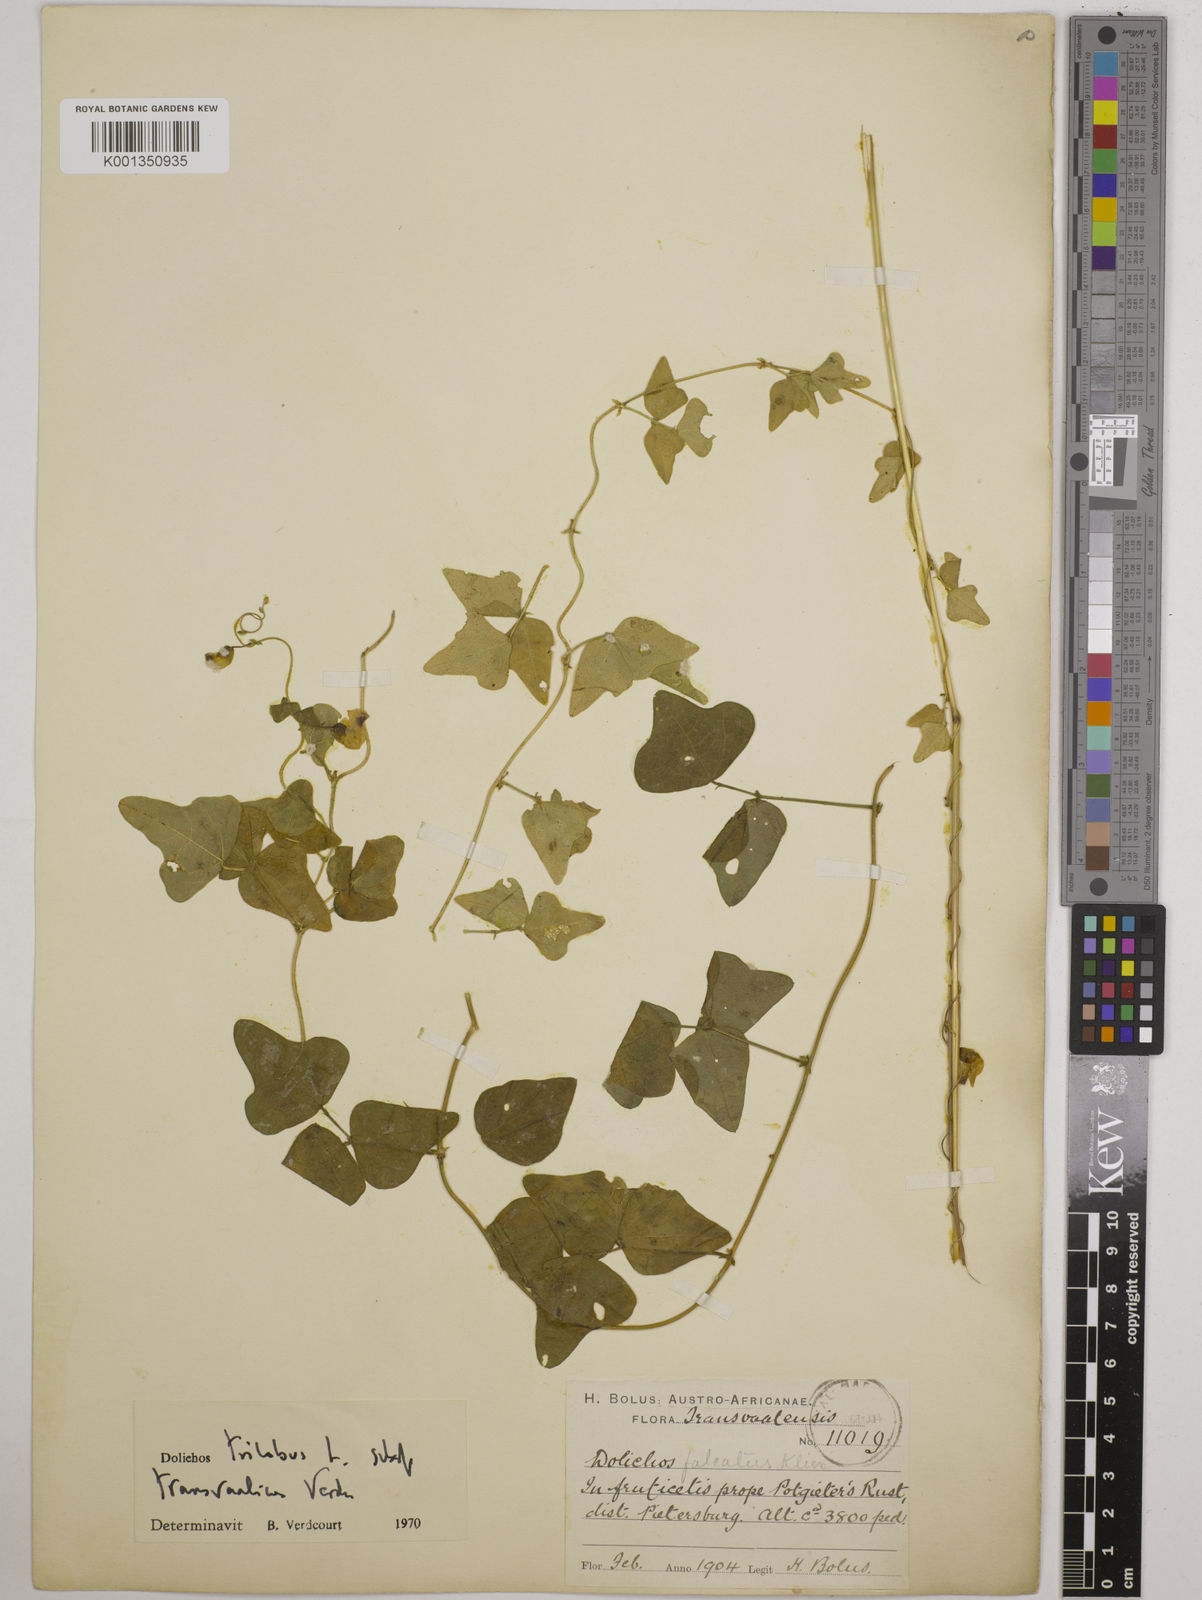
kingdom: Plantae
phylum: Tracheophyta
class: Magnoliopsida
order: Fabales
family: Fabaceae
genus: Dolichos
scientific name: Dolichos
